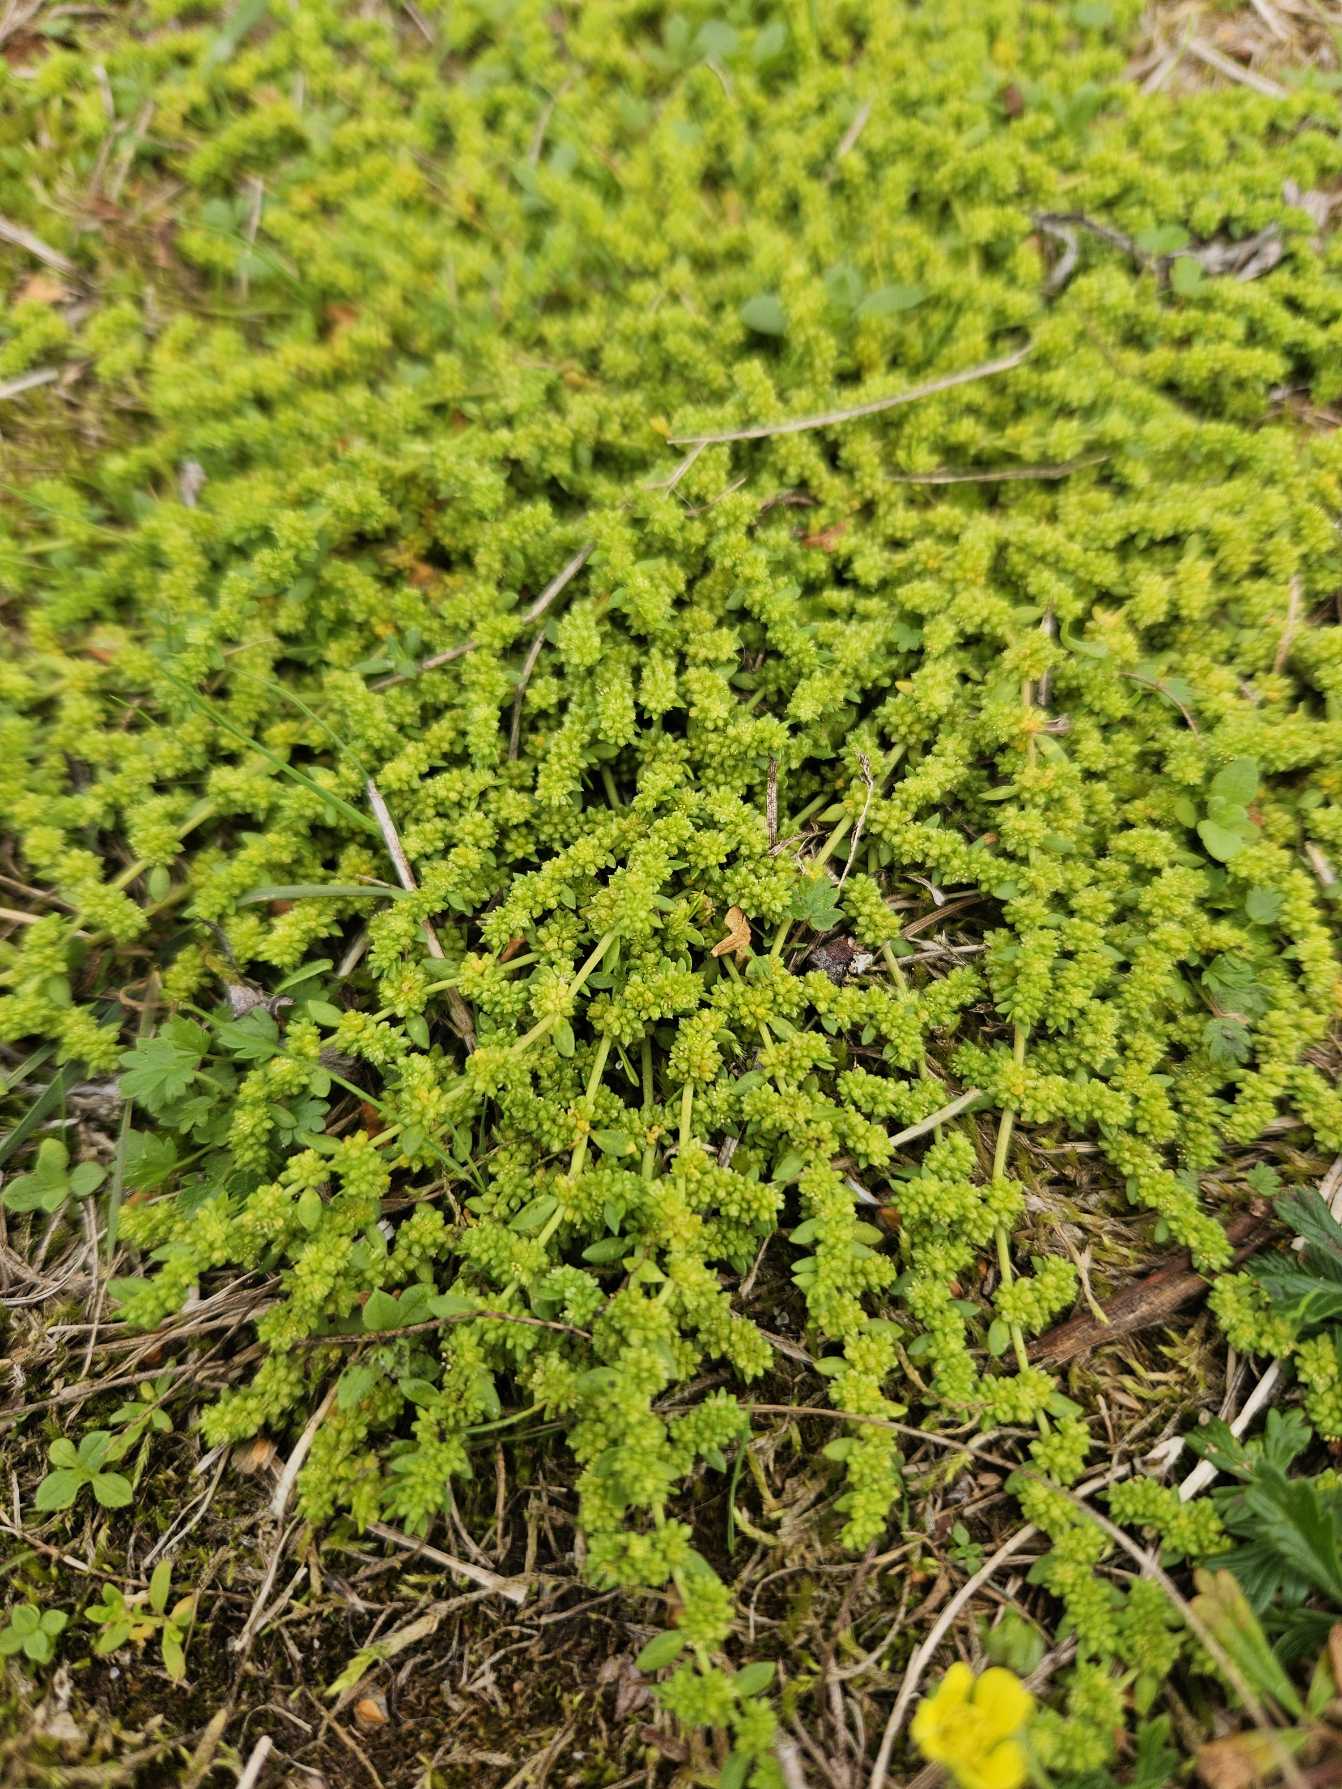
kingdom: Plantae
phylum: Tracheophyta
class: Magnoliopsida
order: Caryophyllales
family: Caryophyllaceae
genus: Herniaria
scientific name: Herniaria glabra
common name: Brudurt
